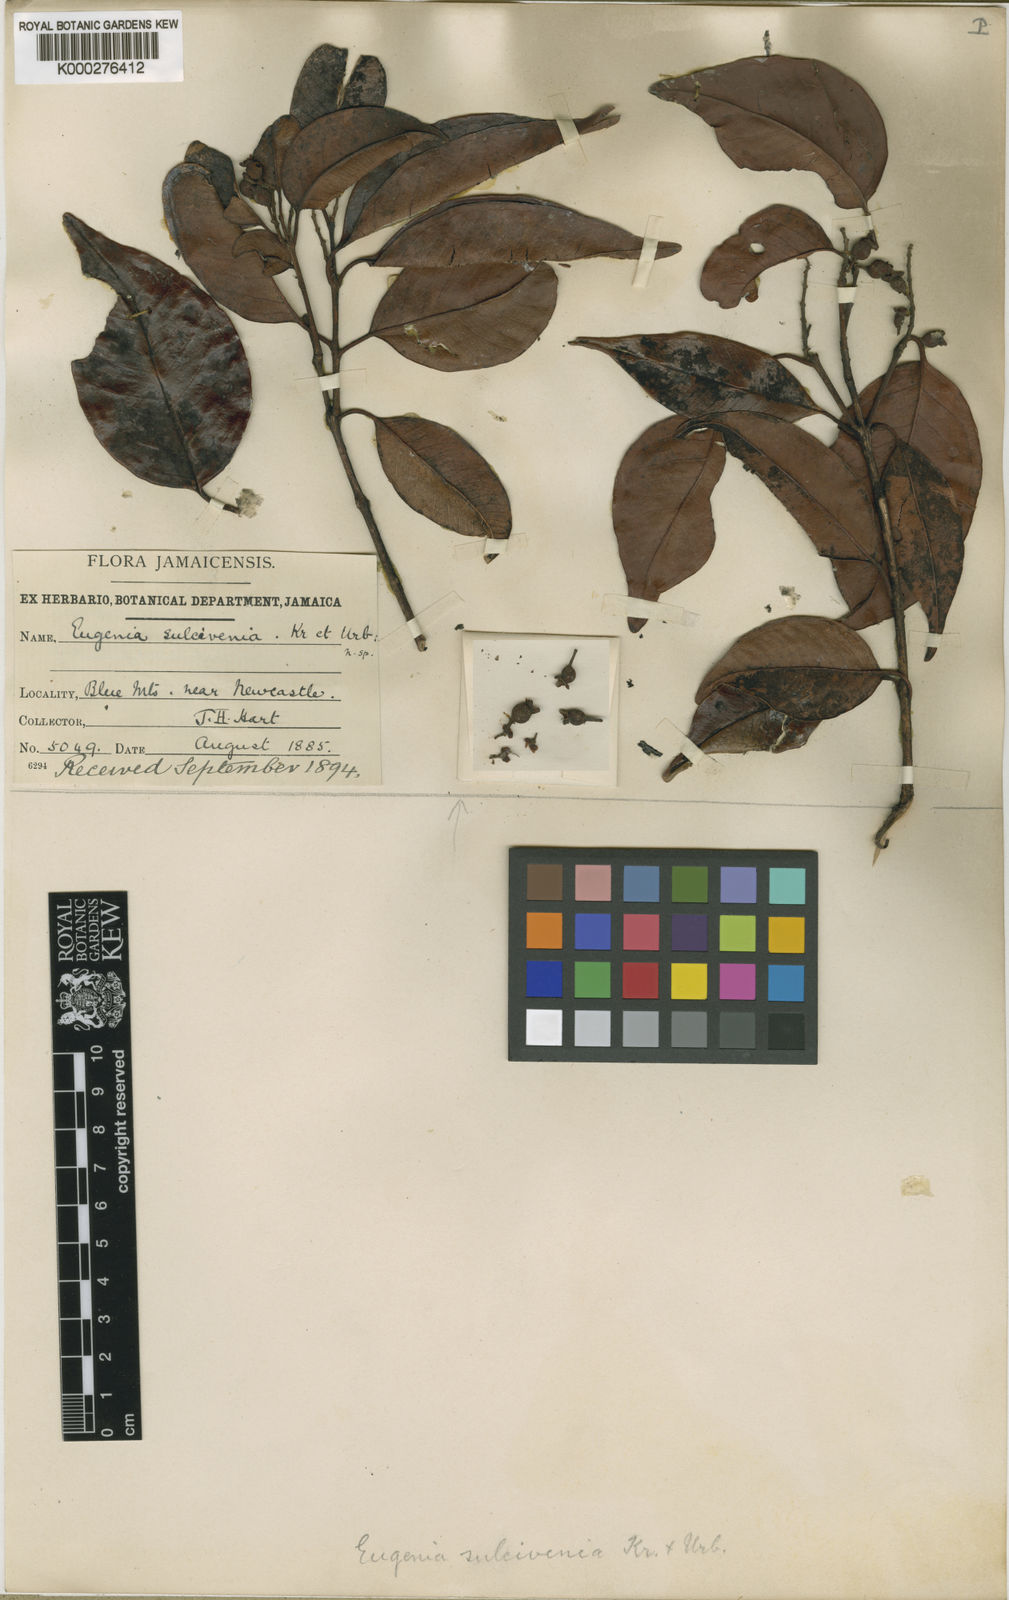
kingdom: Plantae
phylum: Tracheophyta
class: Magnoliopsida
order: Myrtales
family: Myrtaceae
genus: Eugenia
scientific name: Eugenia sulcivenia
